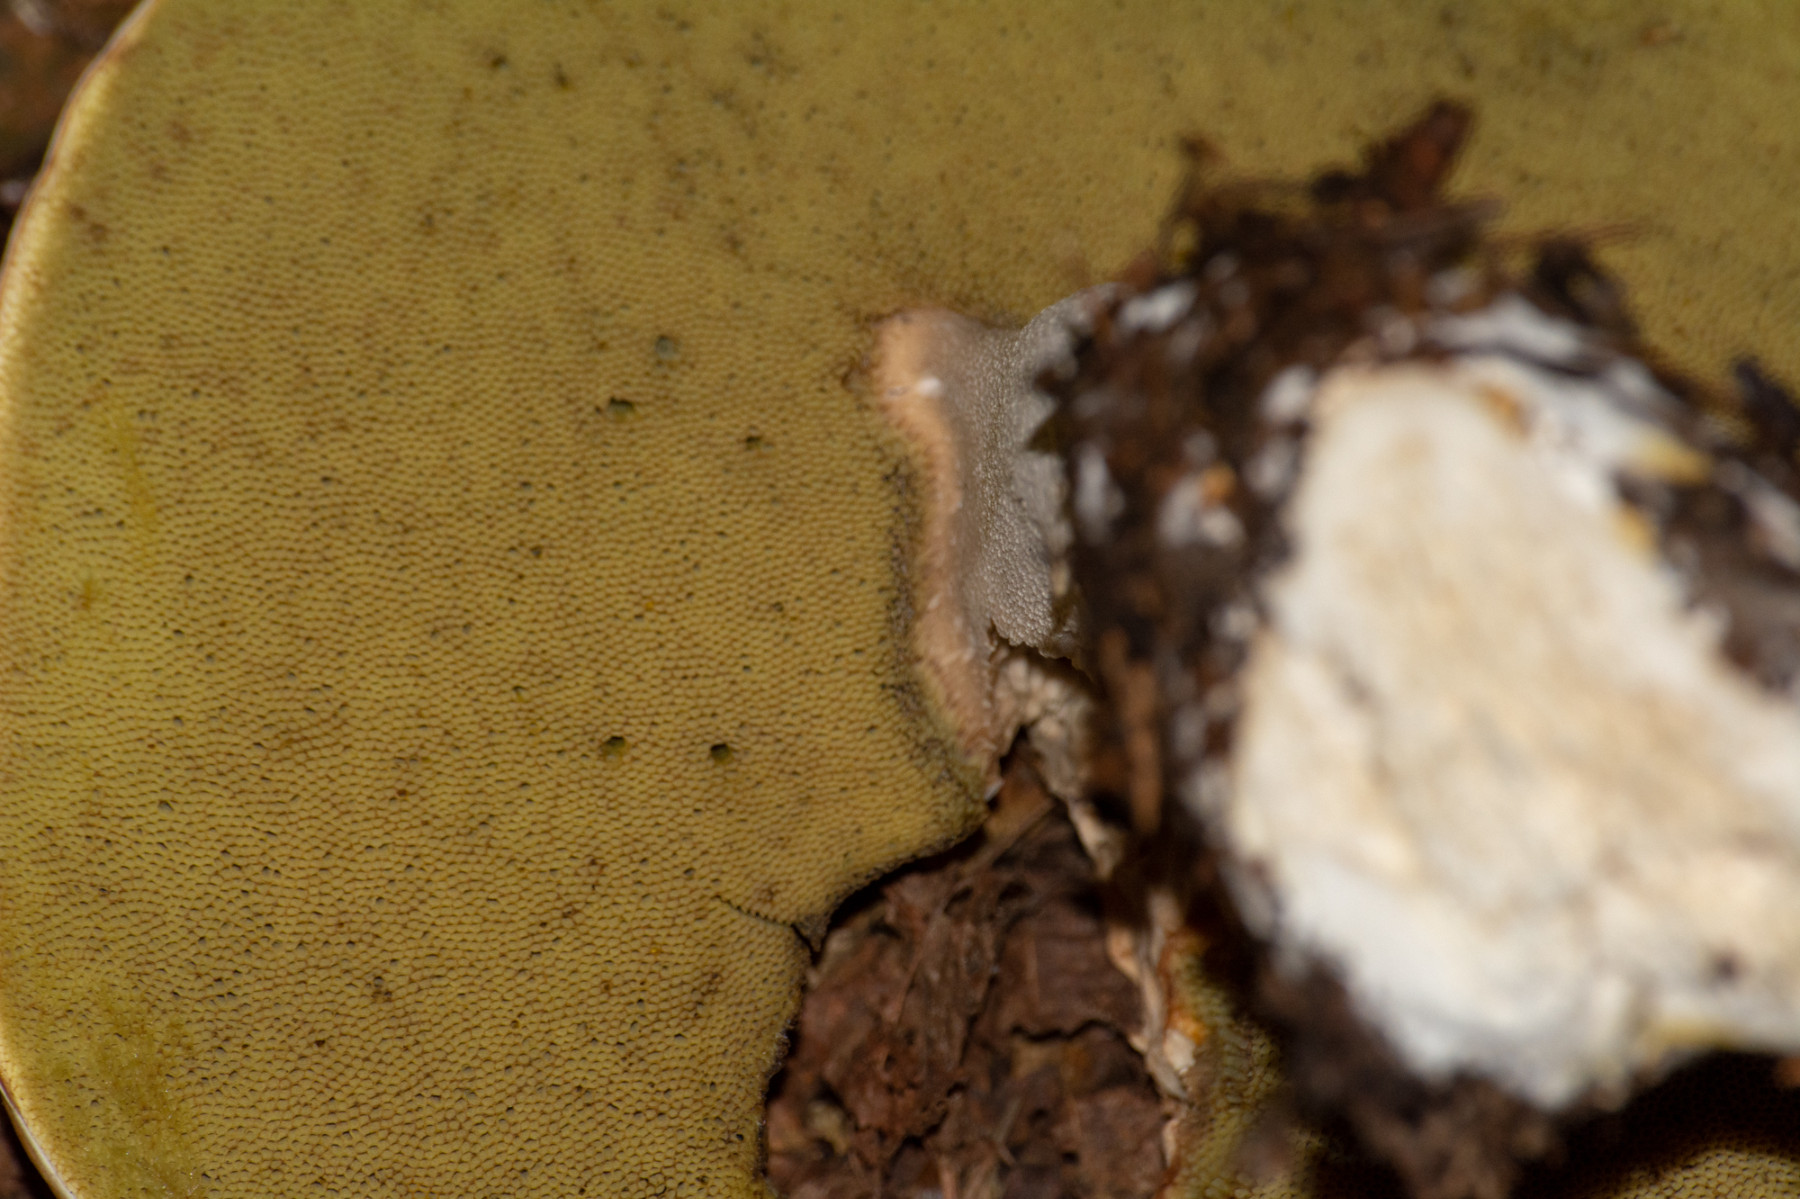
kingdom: Fungi
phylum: Basidiomycota
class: Agaricomycetes
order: Boletales
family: Boletaceae
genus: Boletus
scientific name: Boletus edulis
